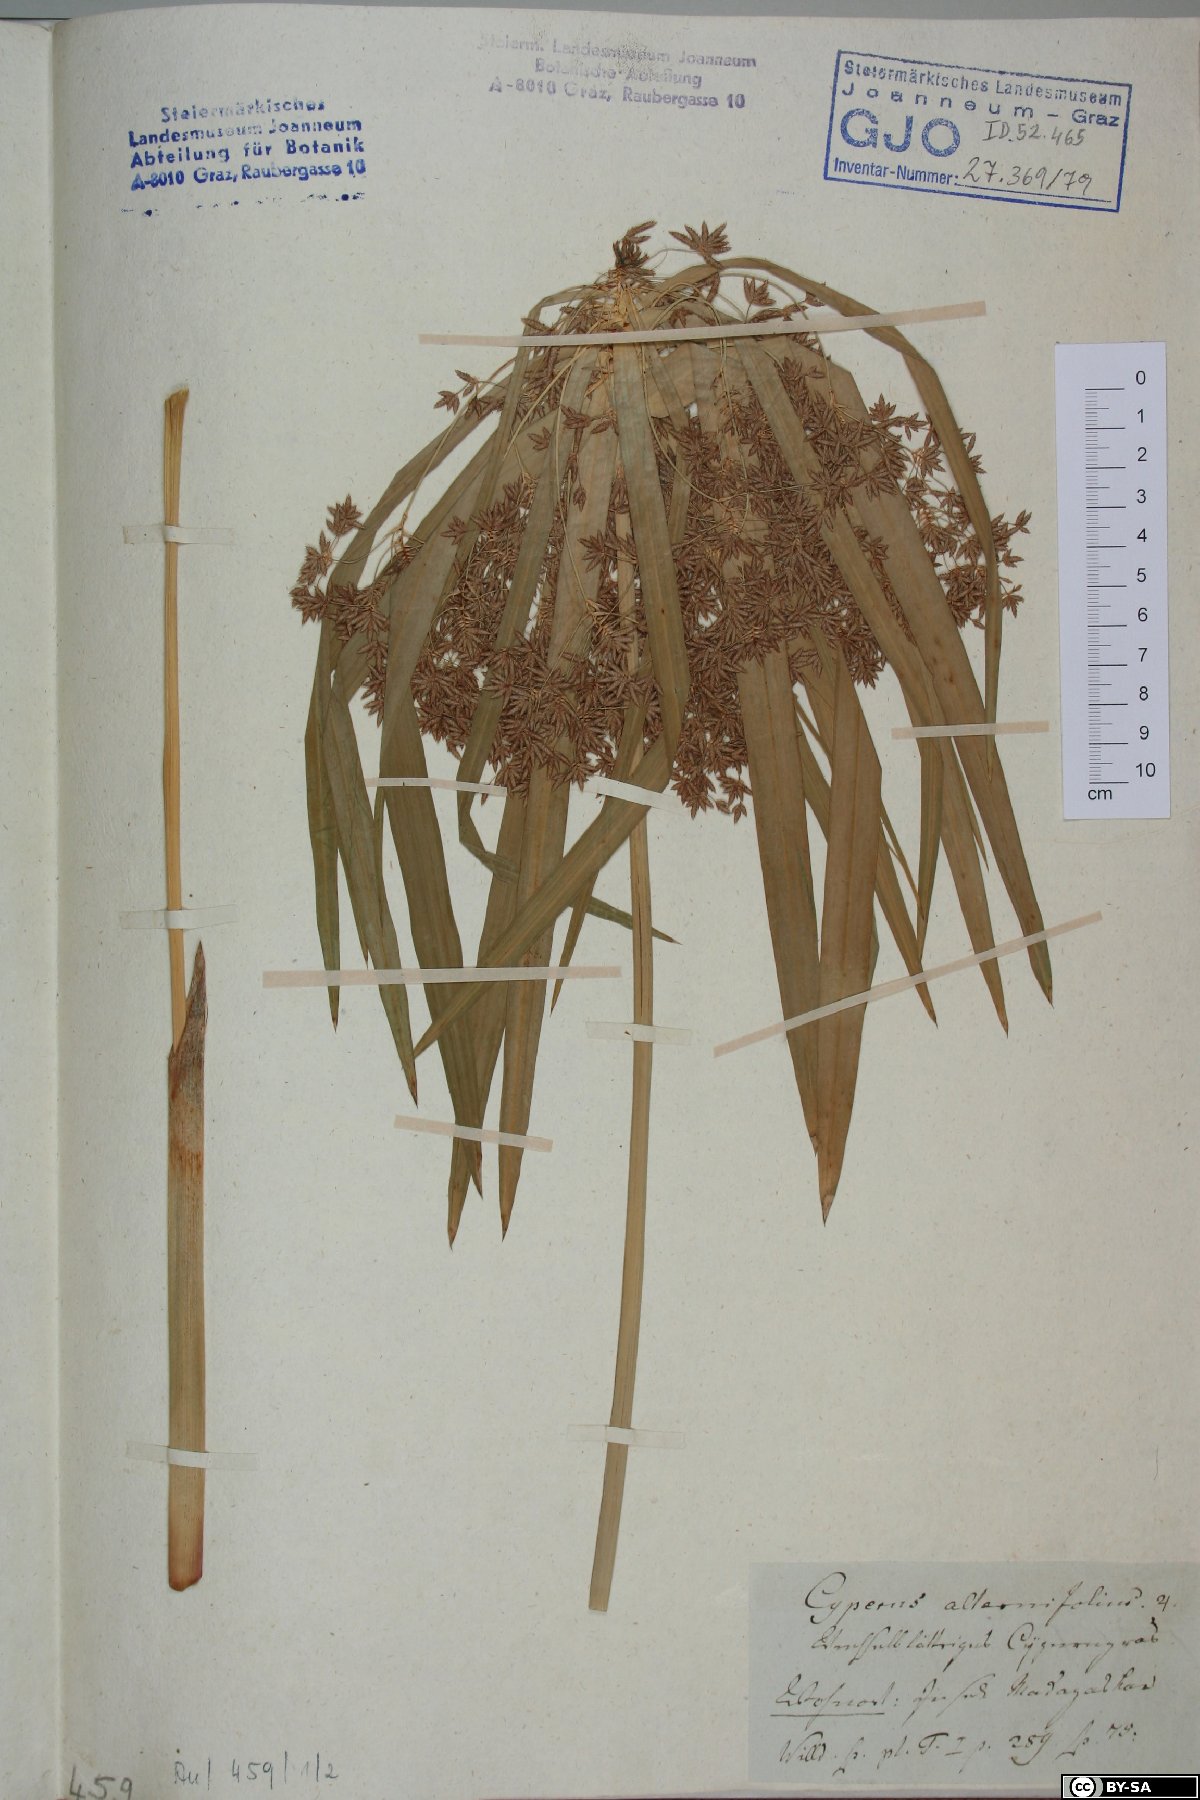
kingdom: Plantae
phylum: Tracheophyta
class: Liliopsida
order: Poales
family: Cyperaceae
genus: Cyperus
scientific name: Cyperus alternifolius
